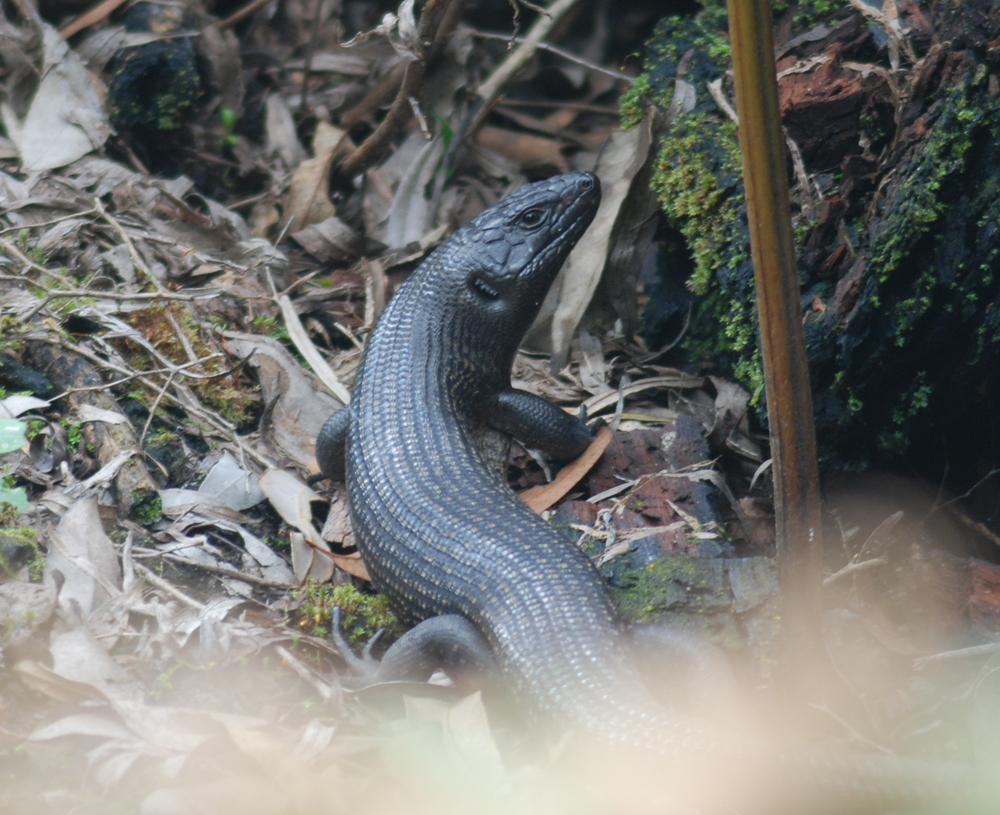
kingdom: Animalia
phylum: Chordata
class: Squamata
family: Scincidae
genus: Egernia
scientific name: Egernia kingii
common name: King's skink
